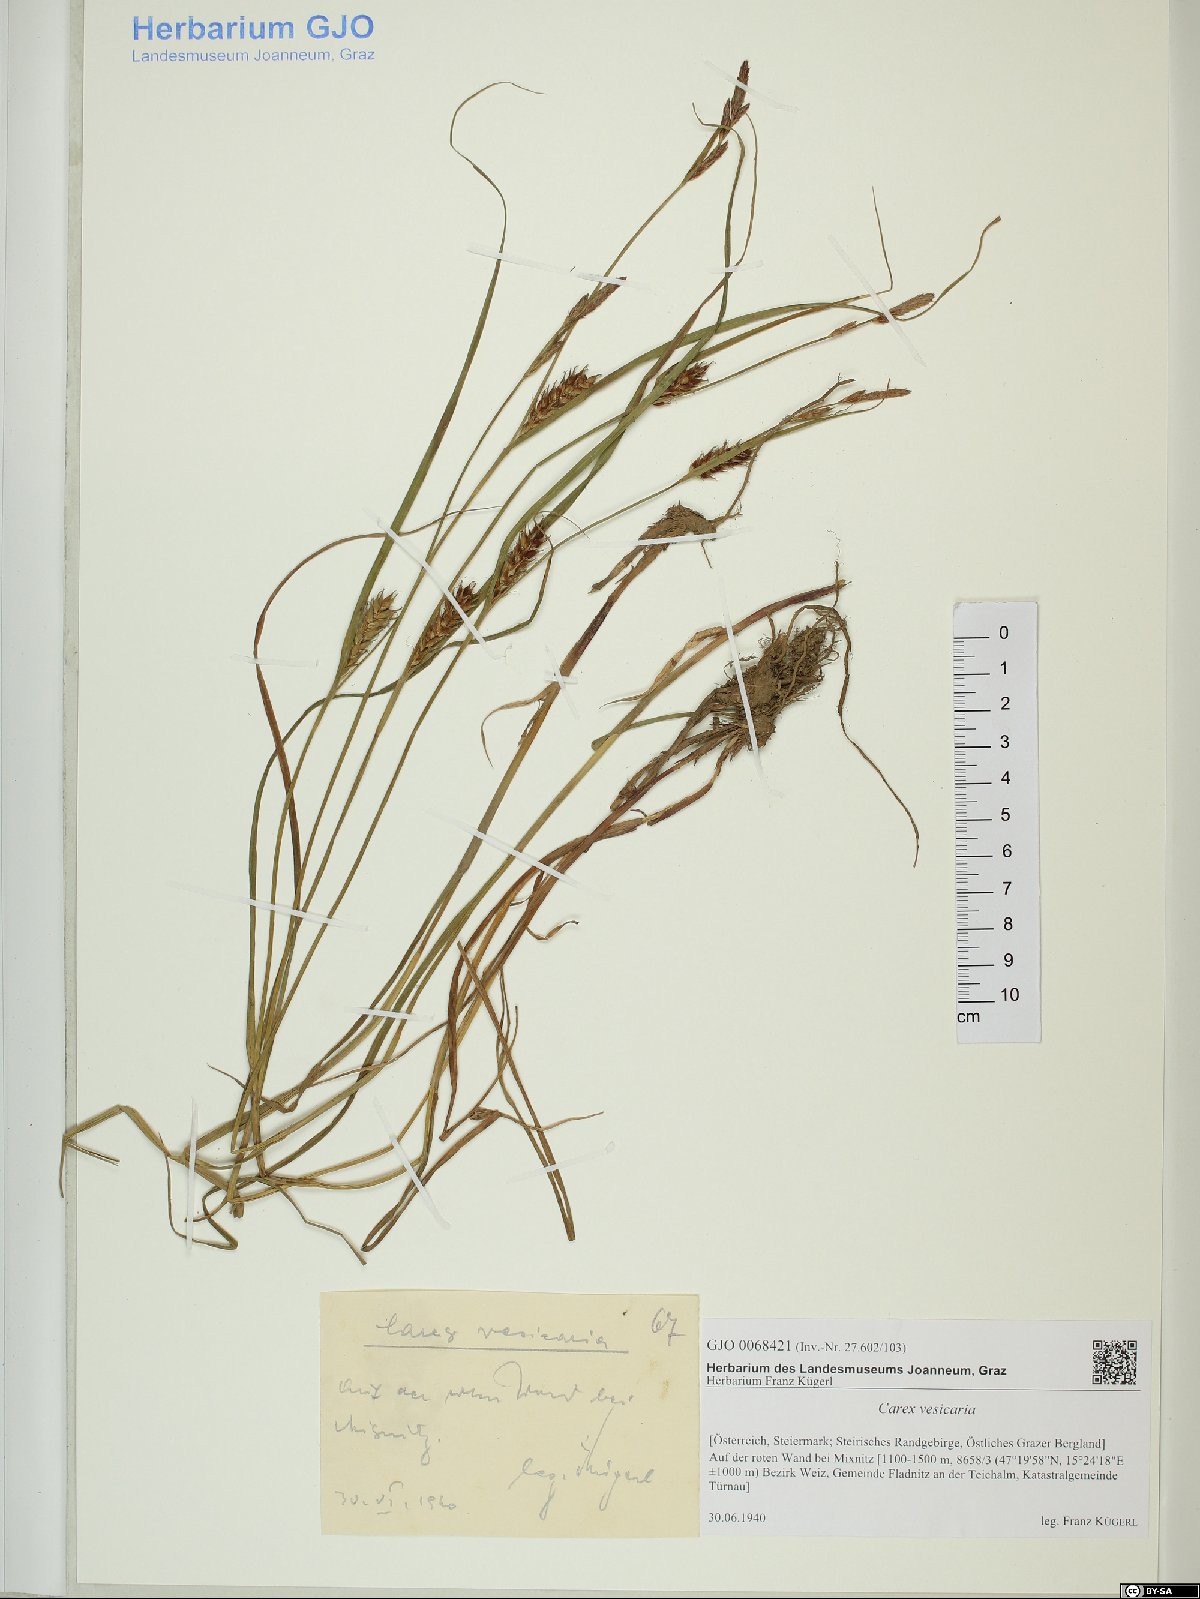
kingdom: Plantae
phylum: Tracheophyta
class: Liliopsida
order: Poales
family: Cyperaceae
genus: Carex
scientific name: Carex vesicaria
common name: Bladder-sedge
